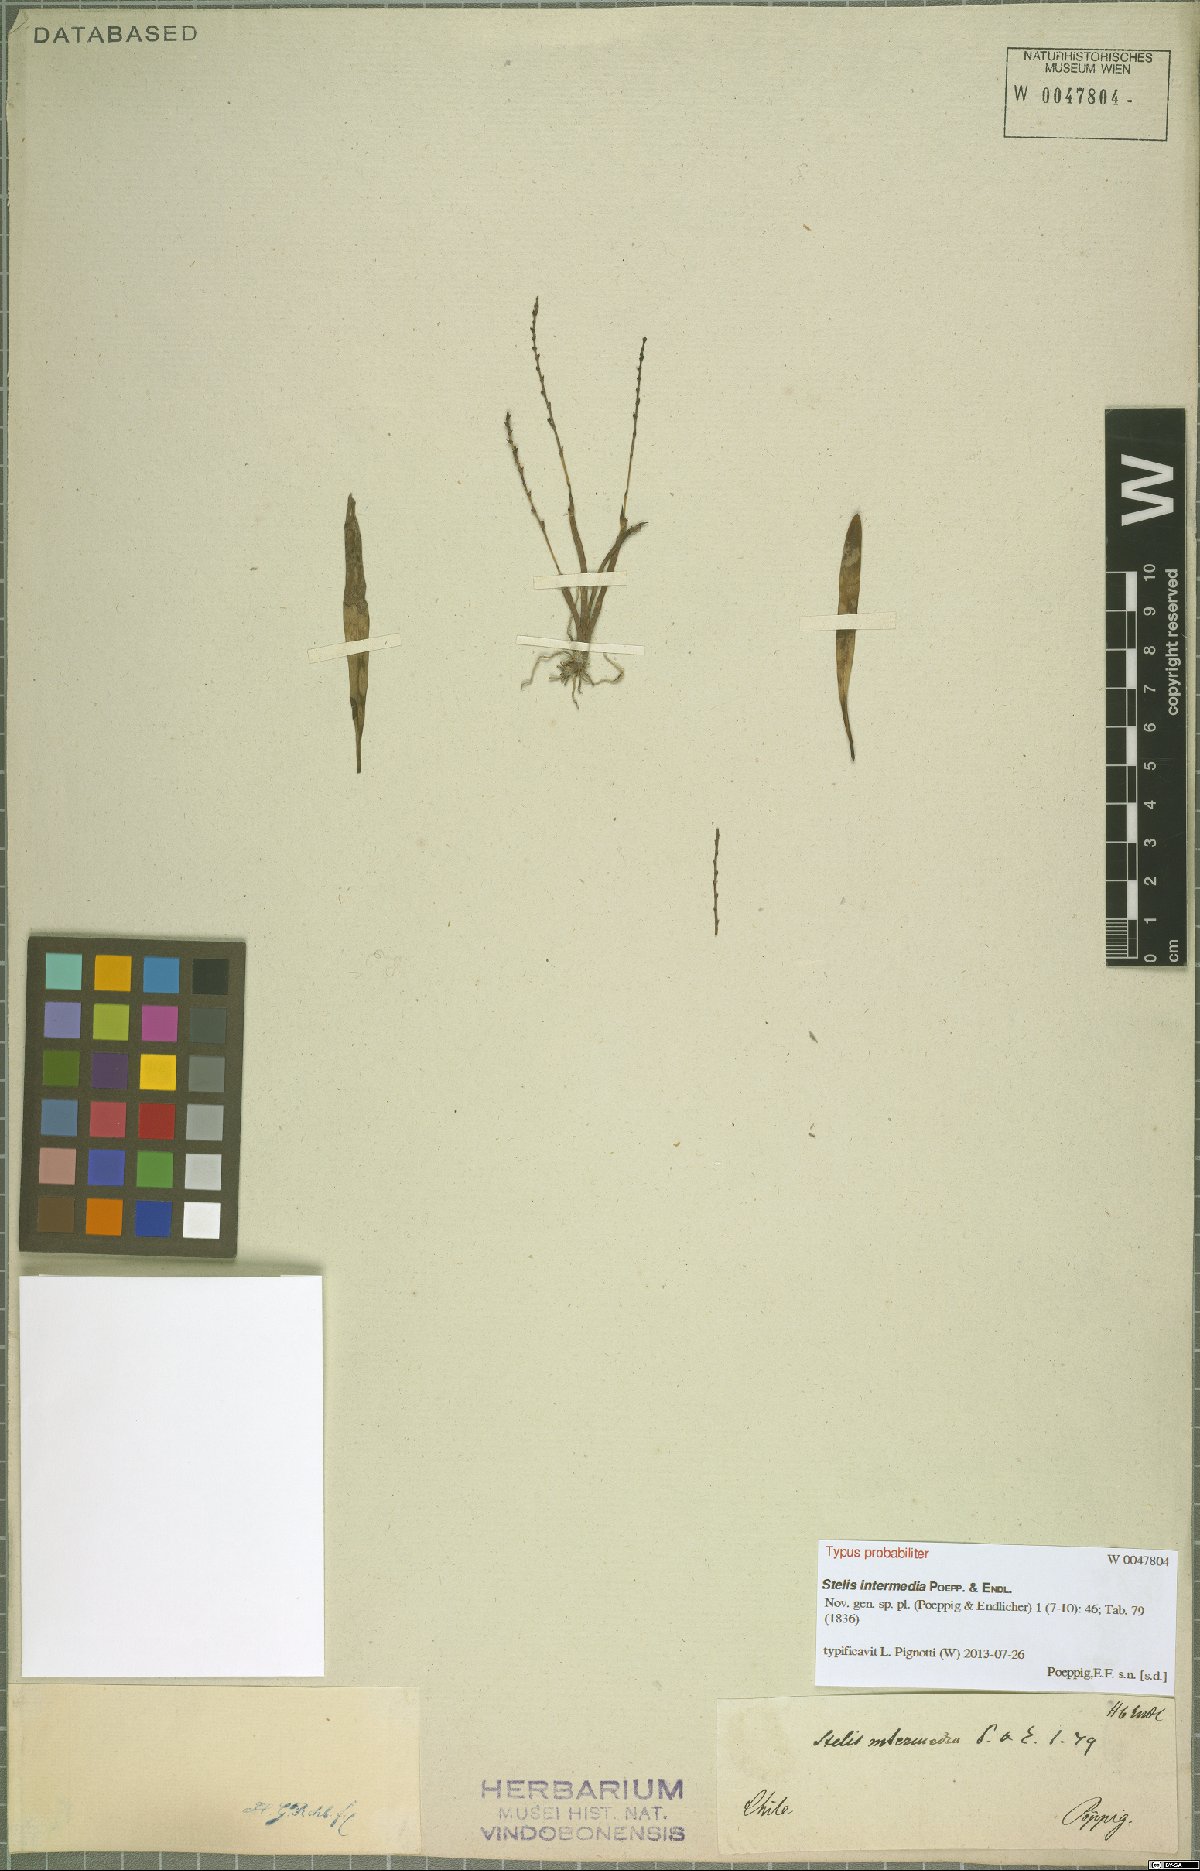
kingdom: Plantae
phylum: Tracheophyta
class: Liliopsida
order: Asparagales
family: Orchidaceae
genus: Stelis
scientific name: Stelis intermedia
